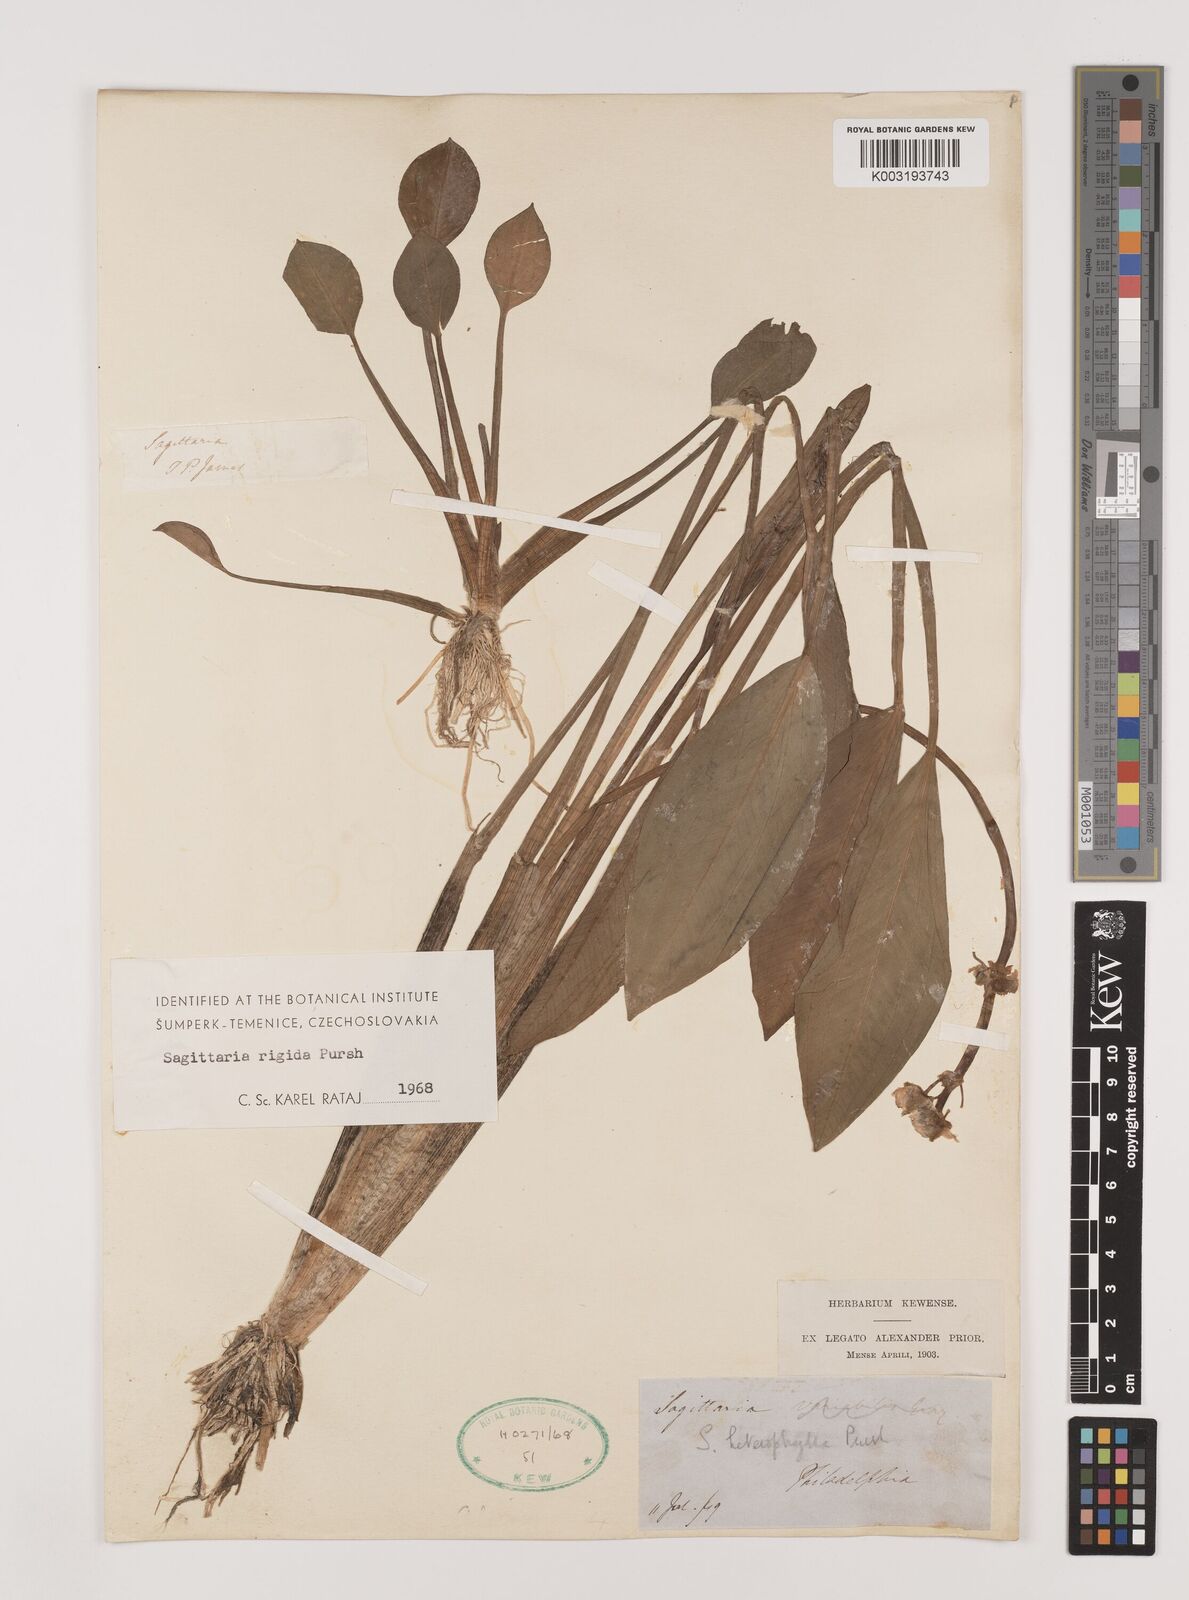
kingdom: Plantae
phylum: Tracheophyta
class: Liliopsida
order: Alismatales
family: Alismataceae
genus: Sagittaria
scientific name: Sagittaria rigida
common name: Canadian arrowhead
